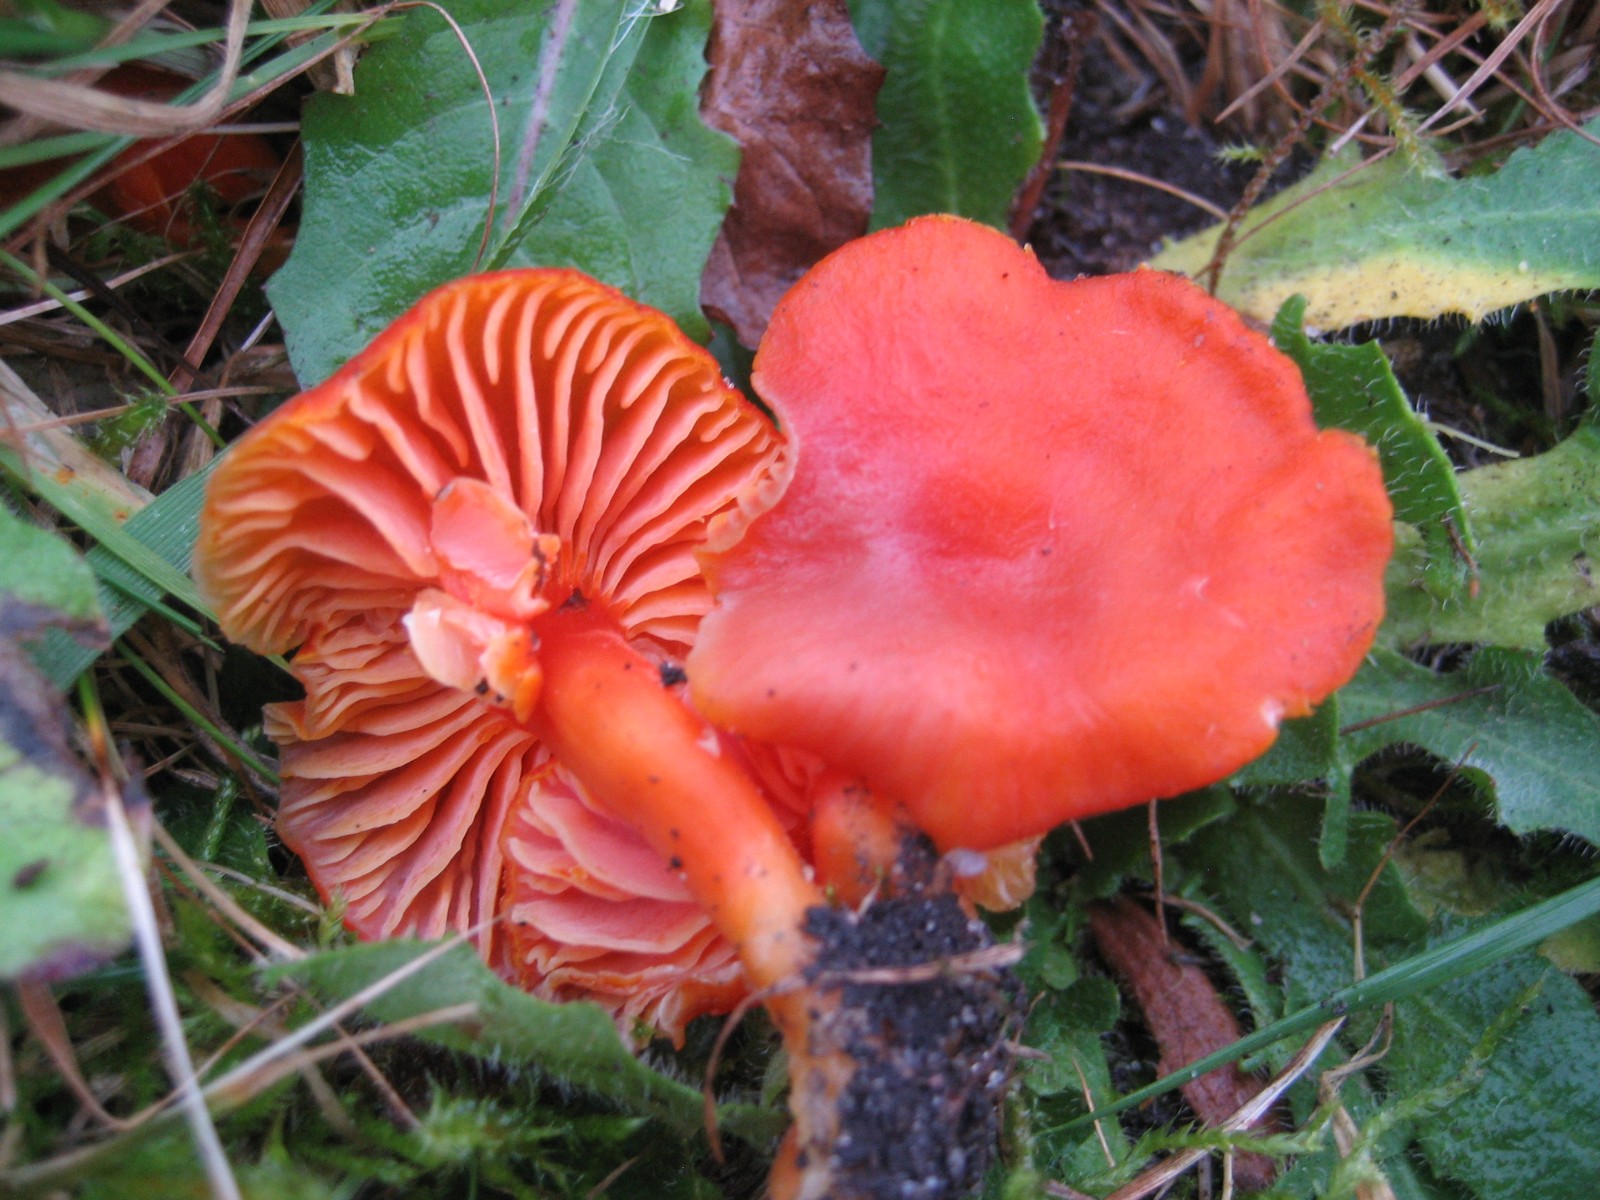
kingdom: Fungi
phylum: Basidiomycota
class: Agaricomycetes
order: Agaricales
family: Hygrophoraceae
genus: Hygrocybe
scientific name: Hygrocybe miniata
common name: mønje-vokshat
